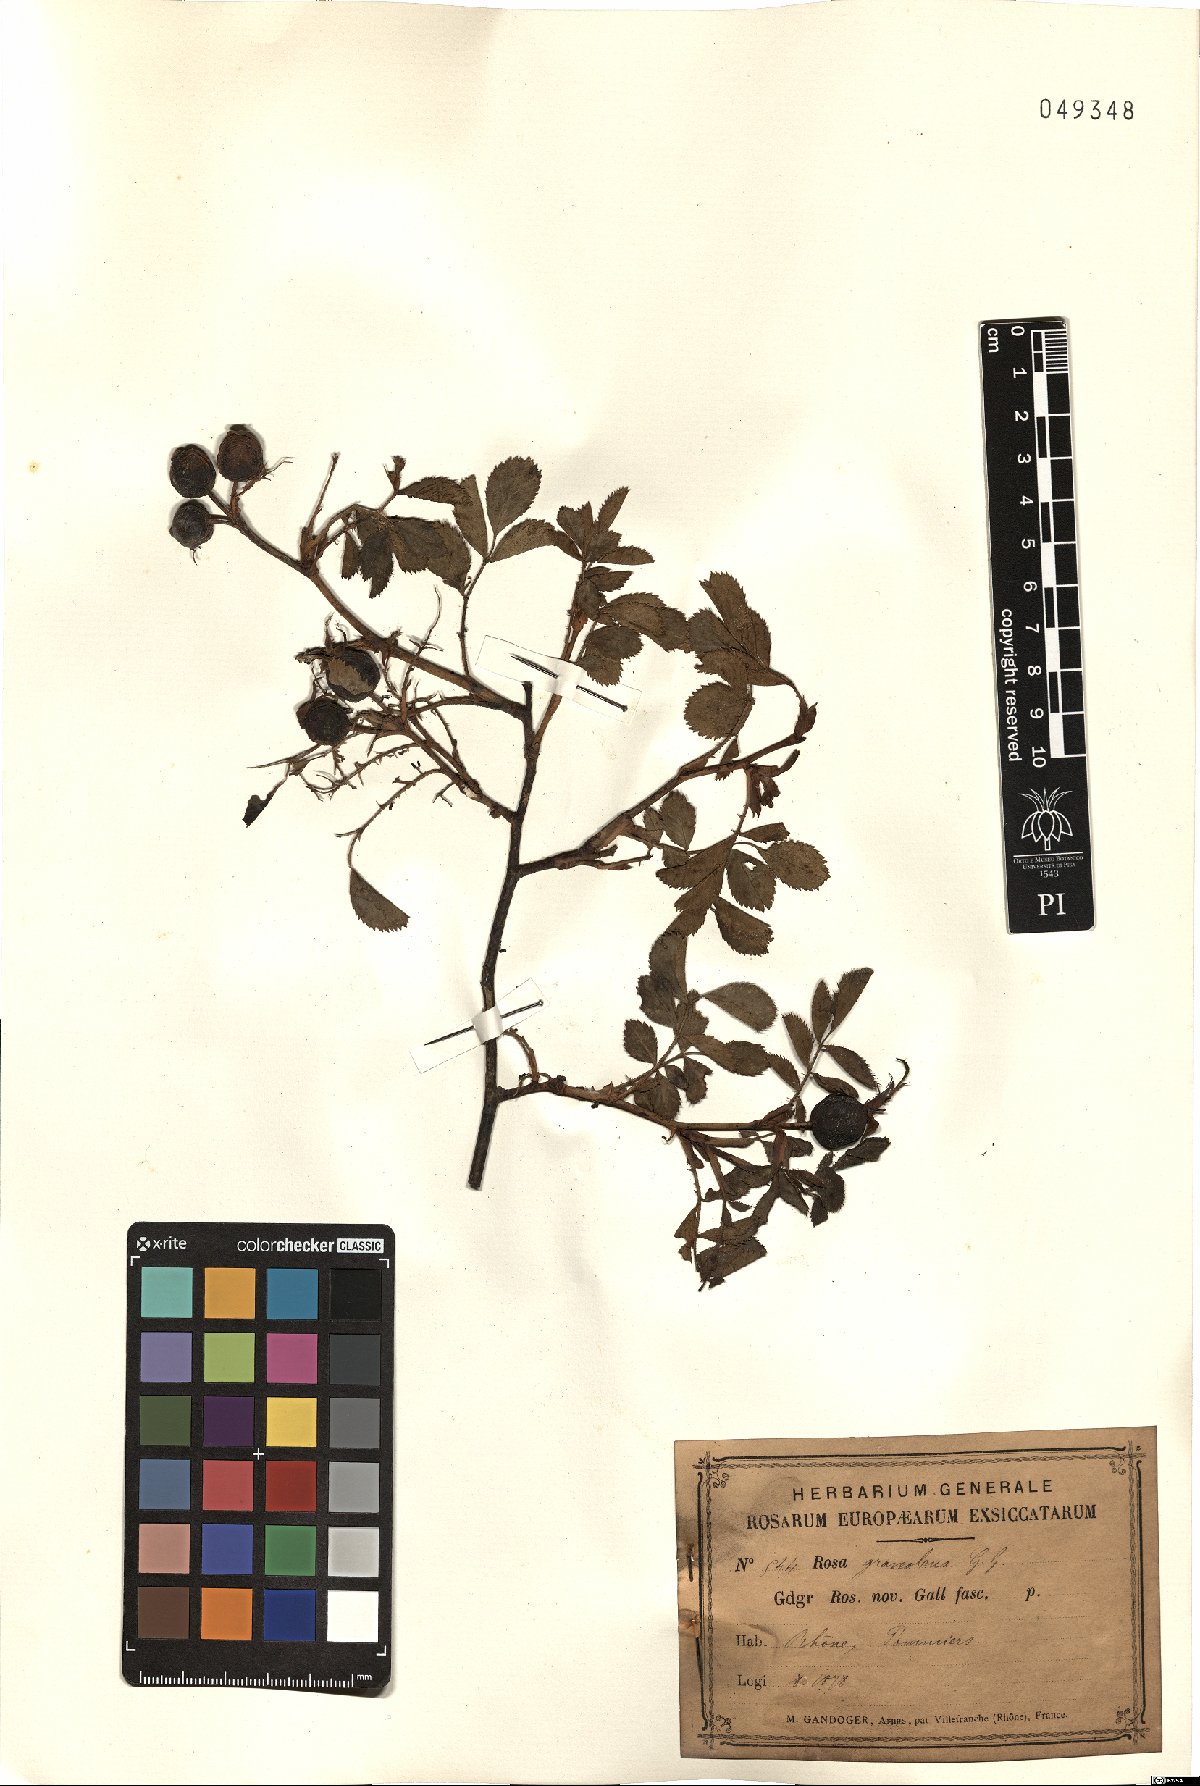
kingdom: Plantae
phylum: Tracheophyta
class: Magnoliopsida
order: Rosales
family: Rosaceae
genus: Rosa
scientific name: Rosa inodora
